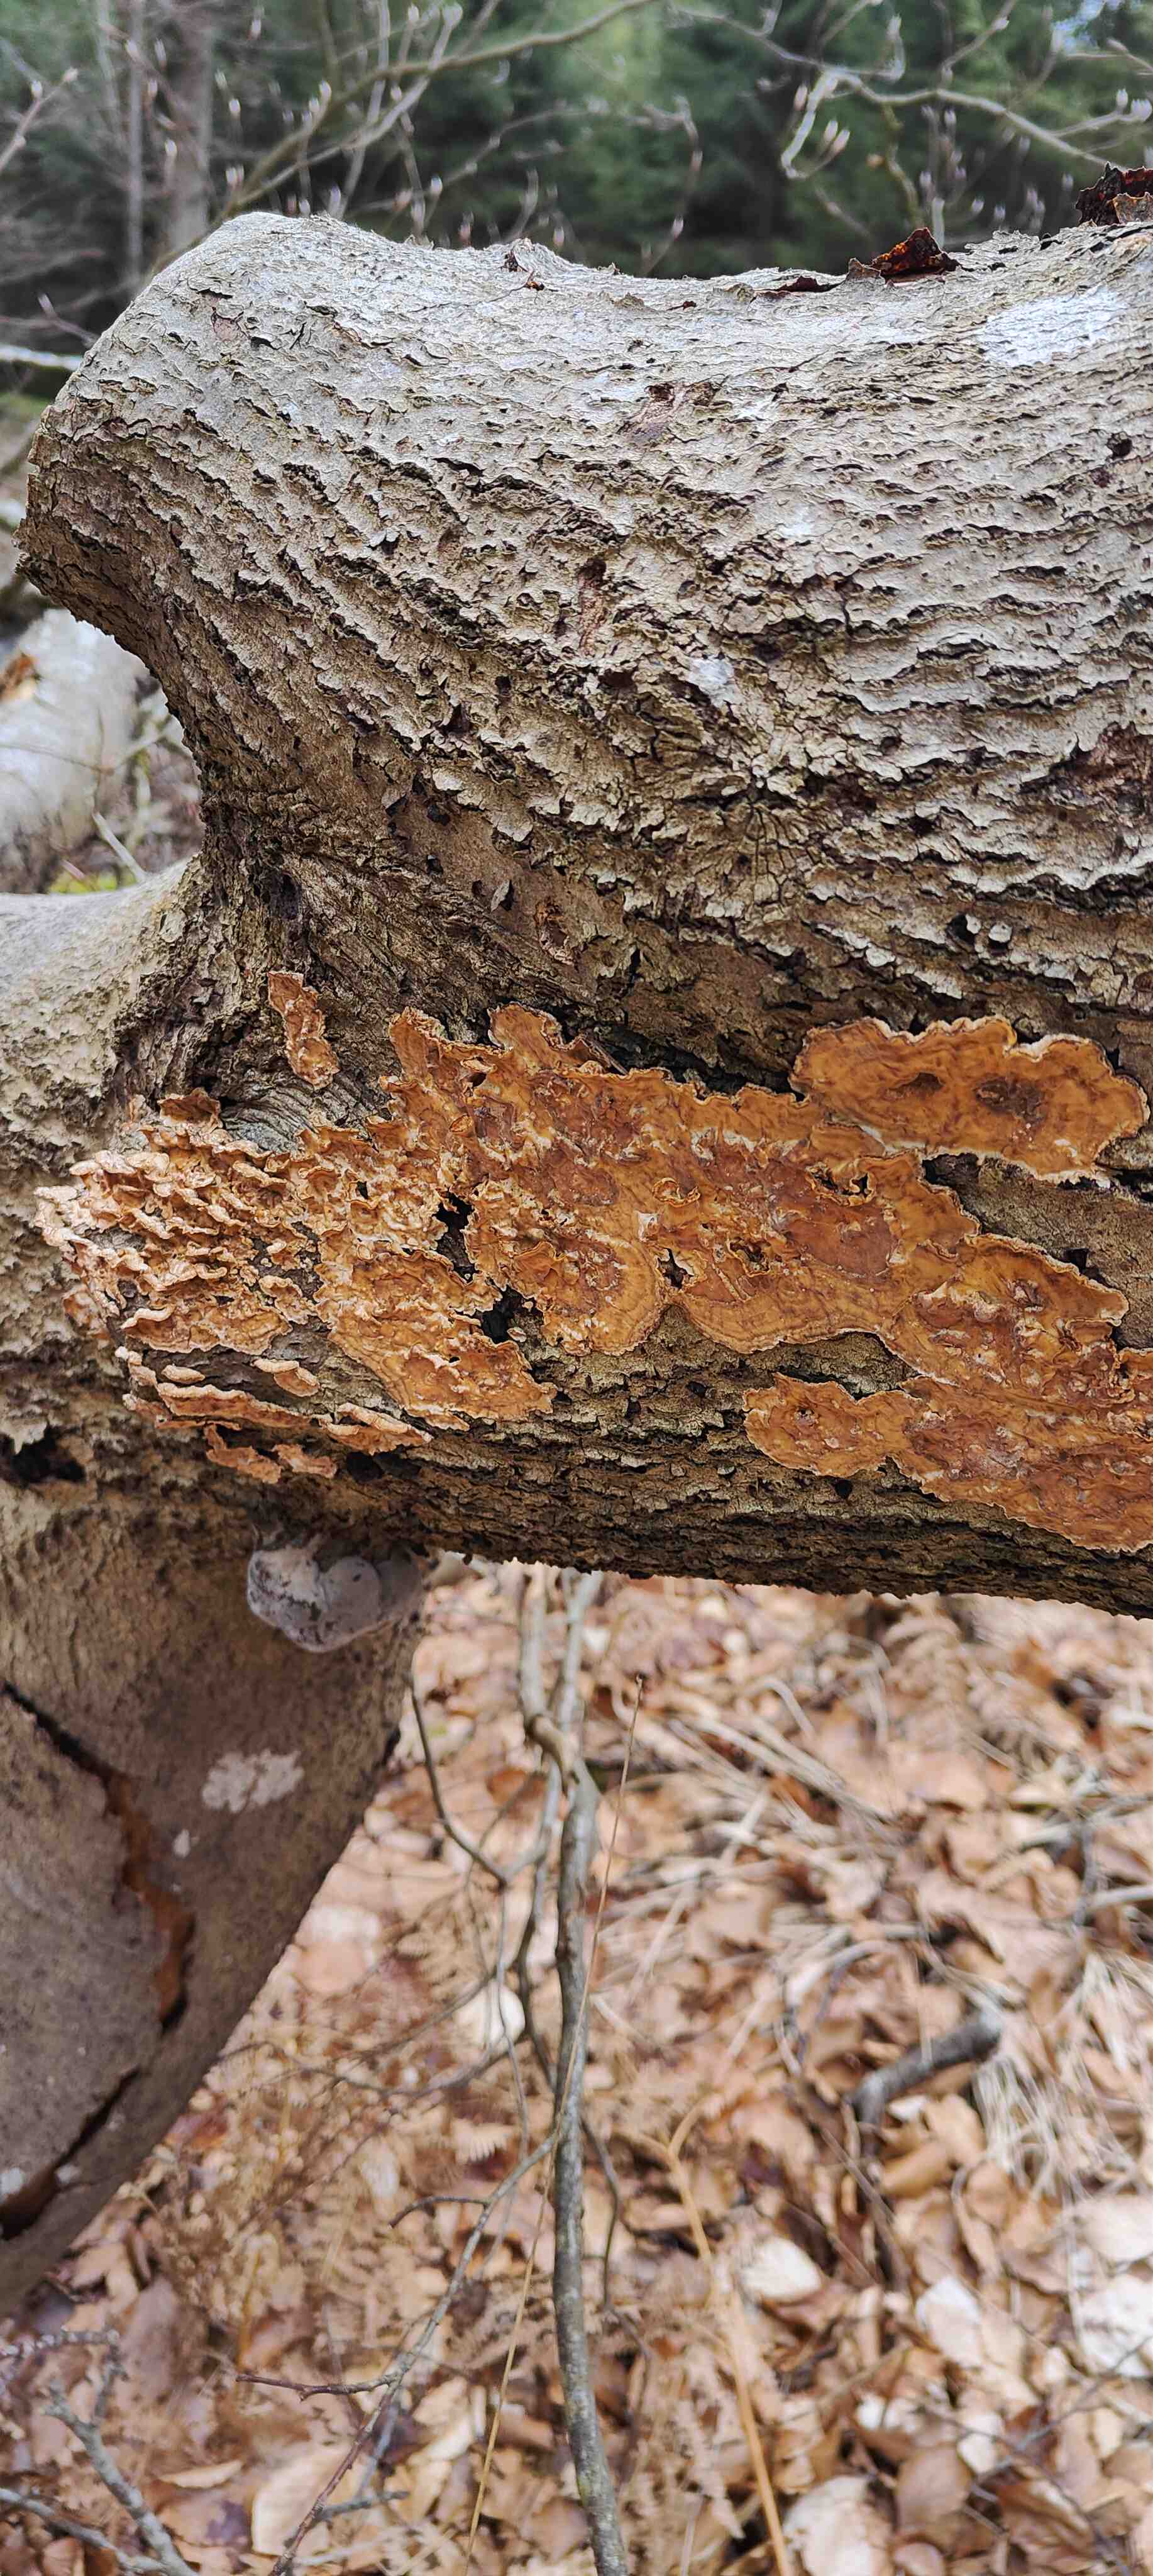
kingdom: Fungi
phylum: Basidiomycota
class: Agaricomycetes
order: Russulales
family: Stereaceae
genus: Stereum
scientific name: Stereum hirsutum
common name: håret lædersvamp
